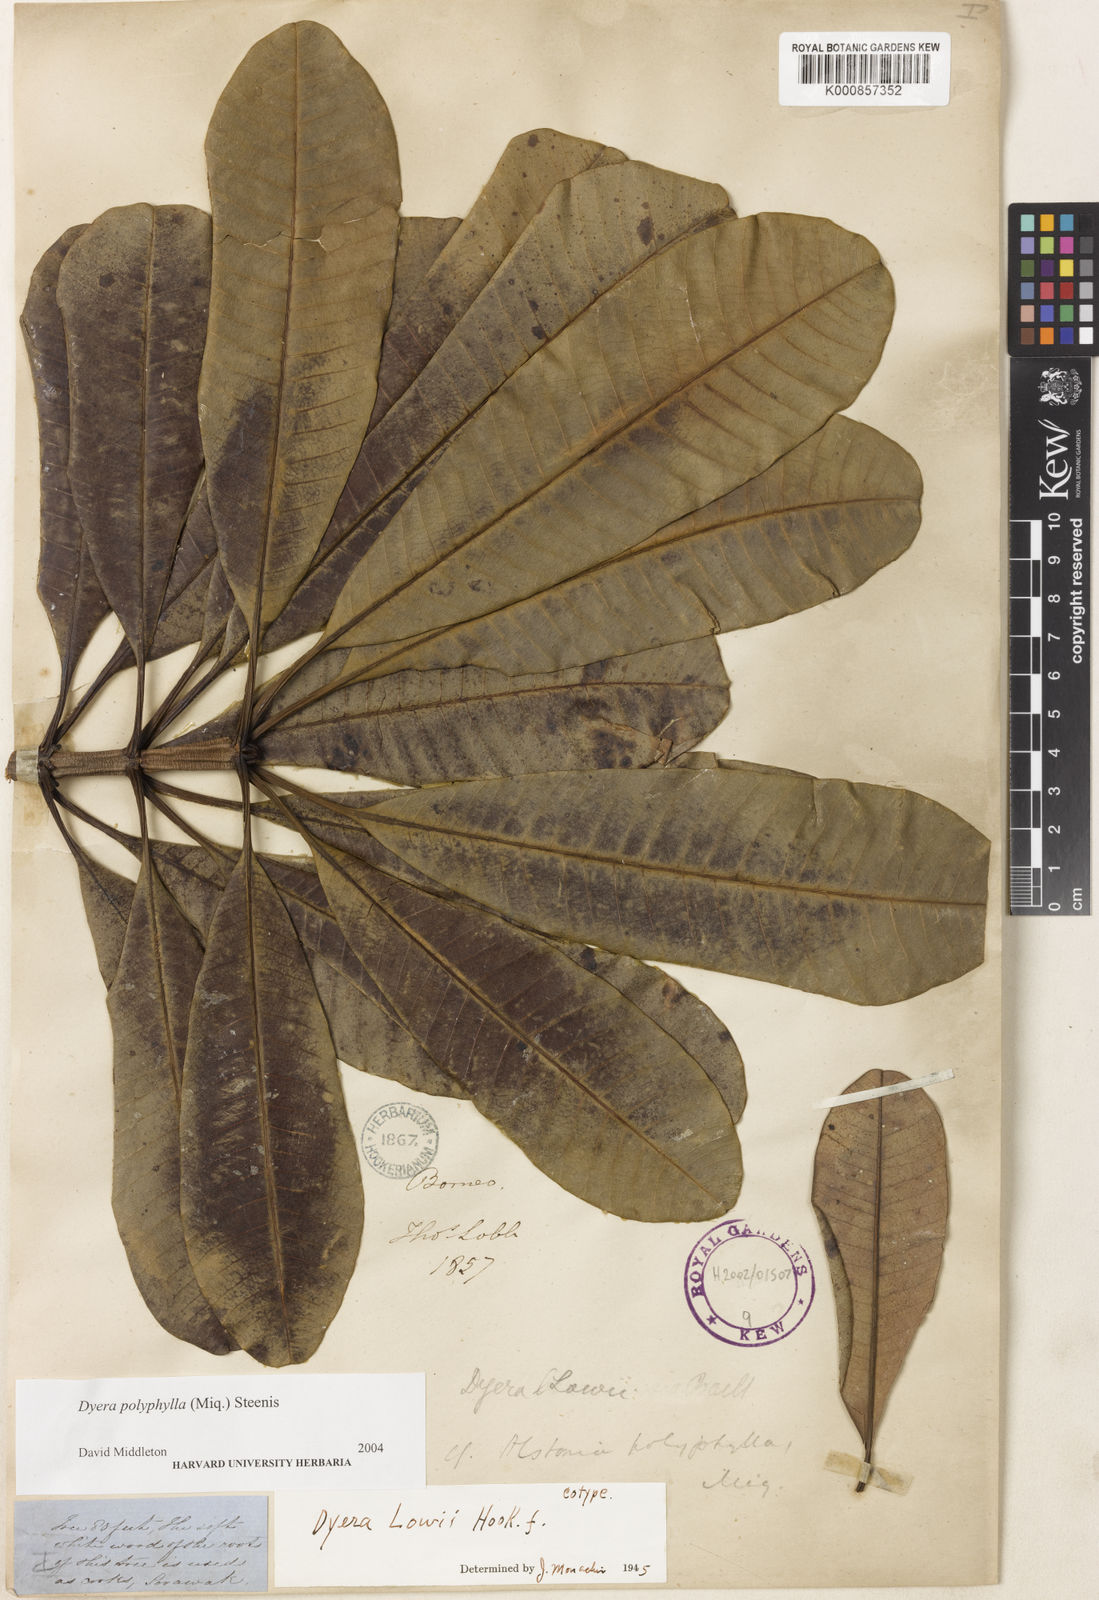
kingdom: Plantae
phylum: Tracheophyta
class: Magnoliopsida
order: Gentianales
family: Apocynaceae
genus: Dyera
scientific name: Dyera polyphylla
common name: Swamp jelutong
